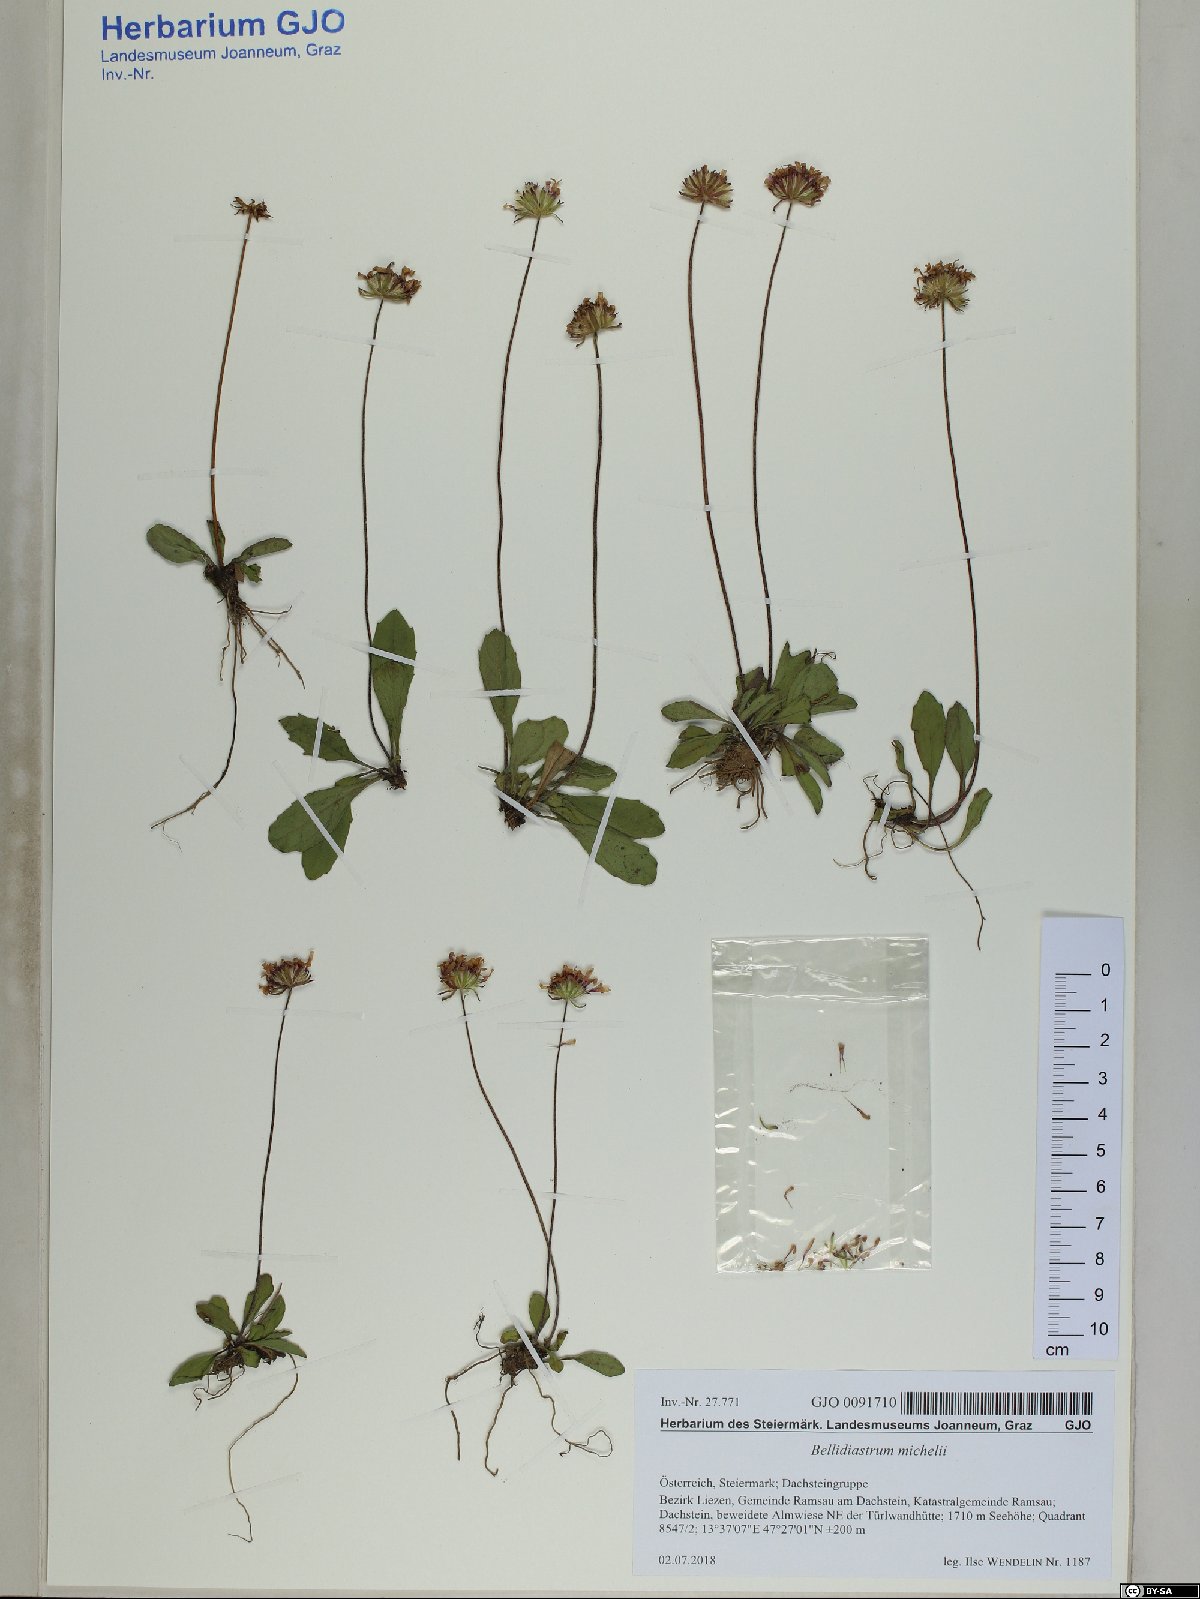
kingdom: Plantae
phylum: Tracheophyta
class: Magnoliopsida
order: Asterales
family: Asteraceae
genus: Bellidiastrum
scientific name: Bellidiastrum michelii
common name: Daisy-star aster
